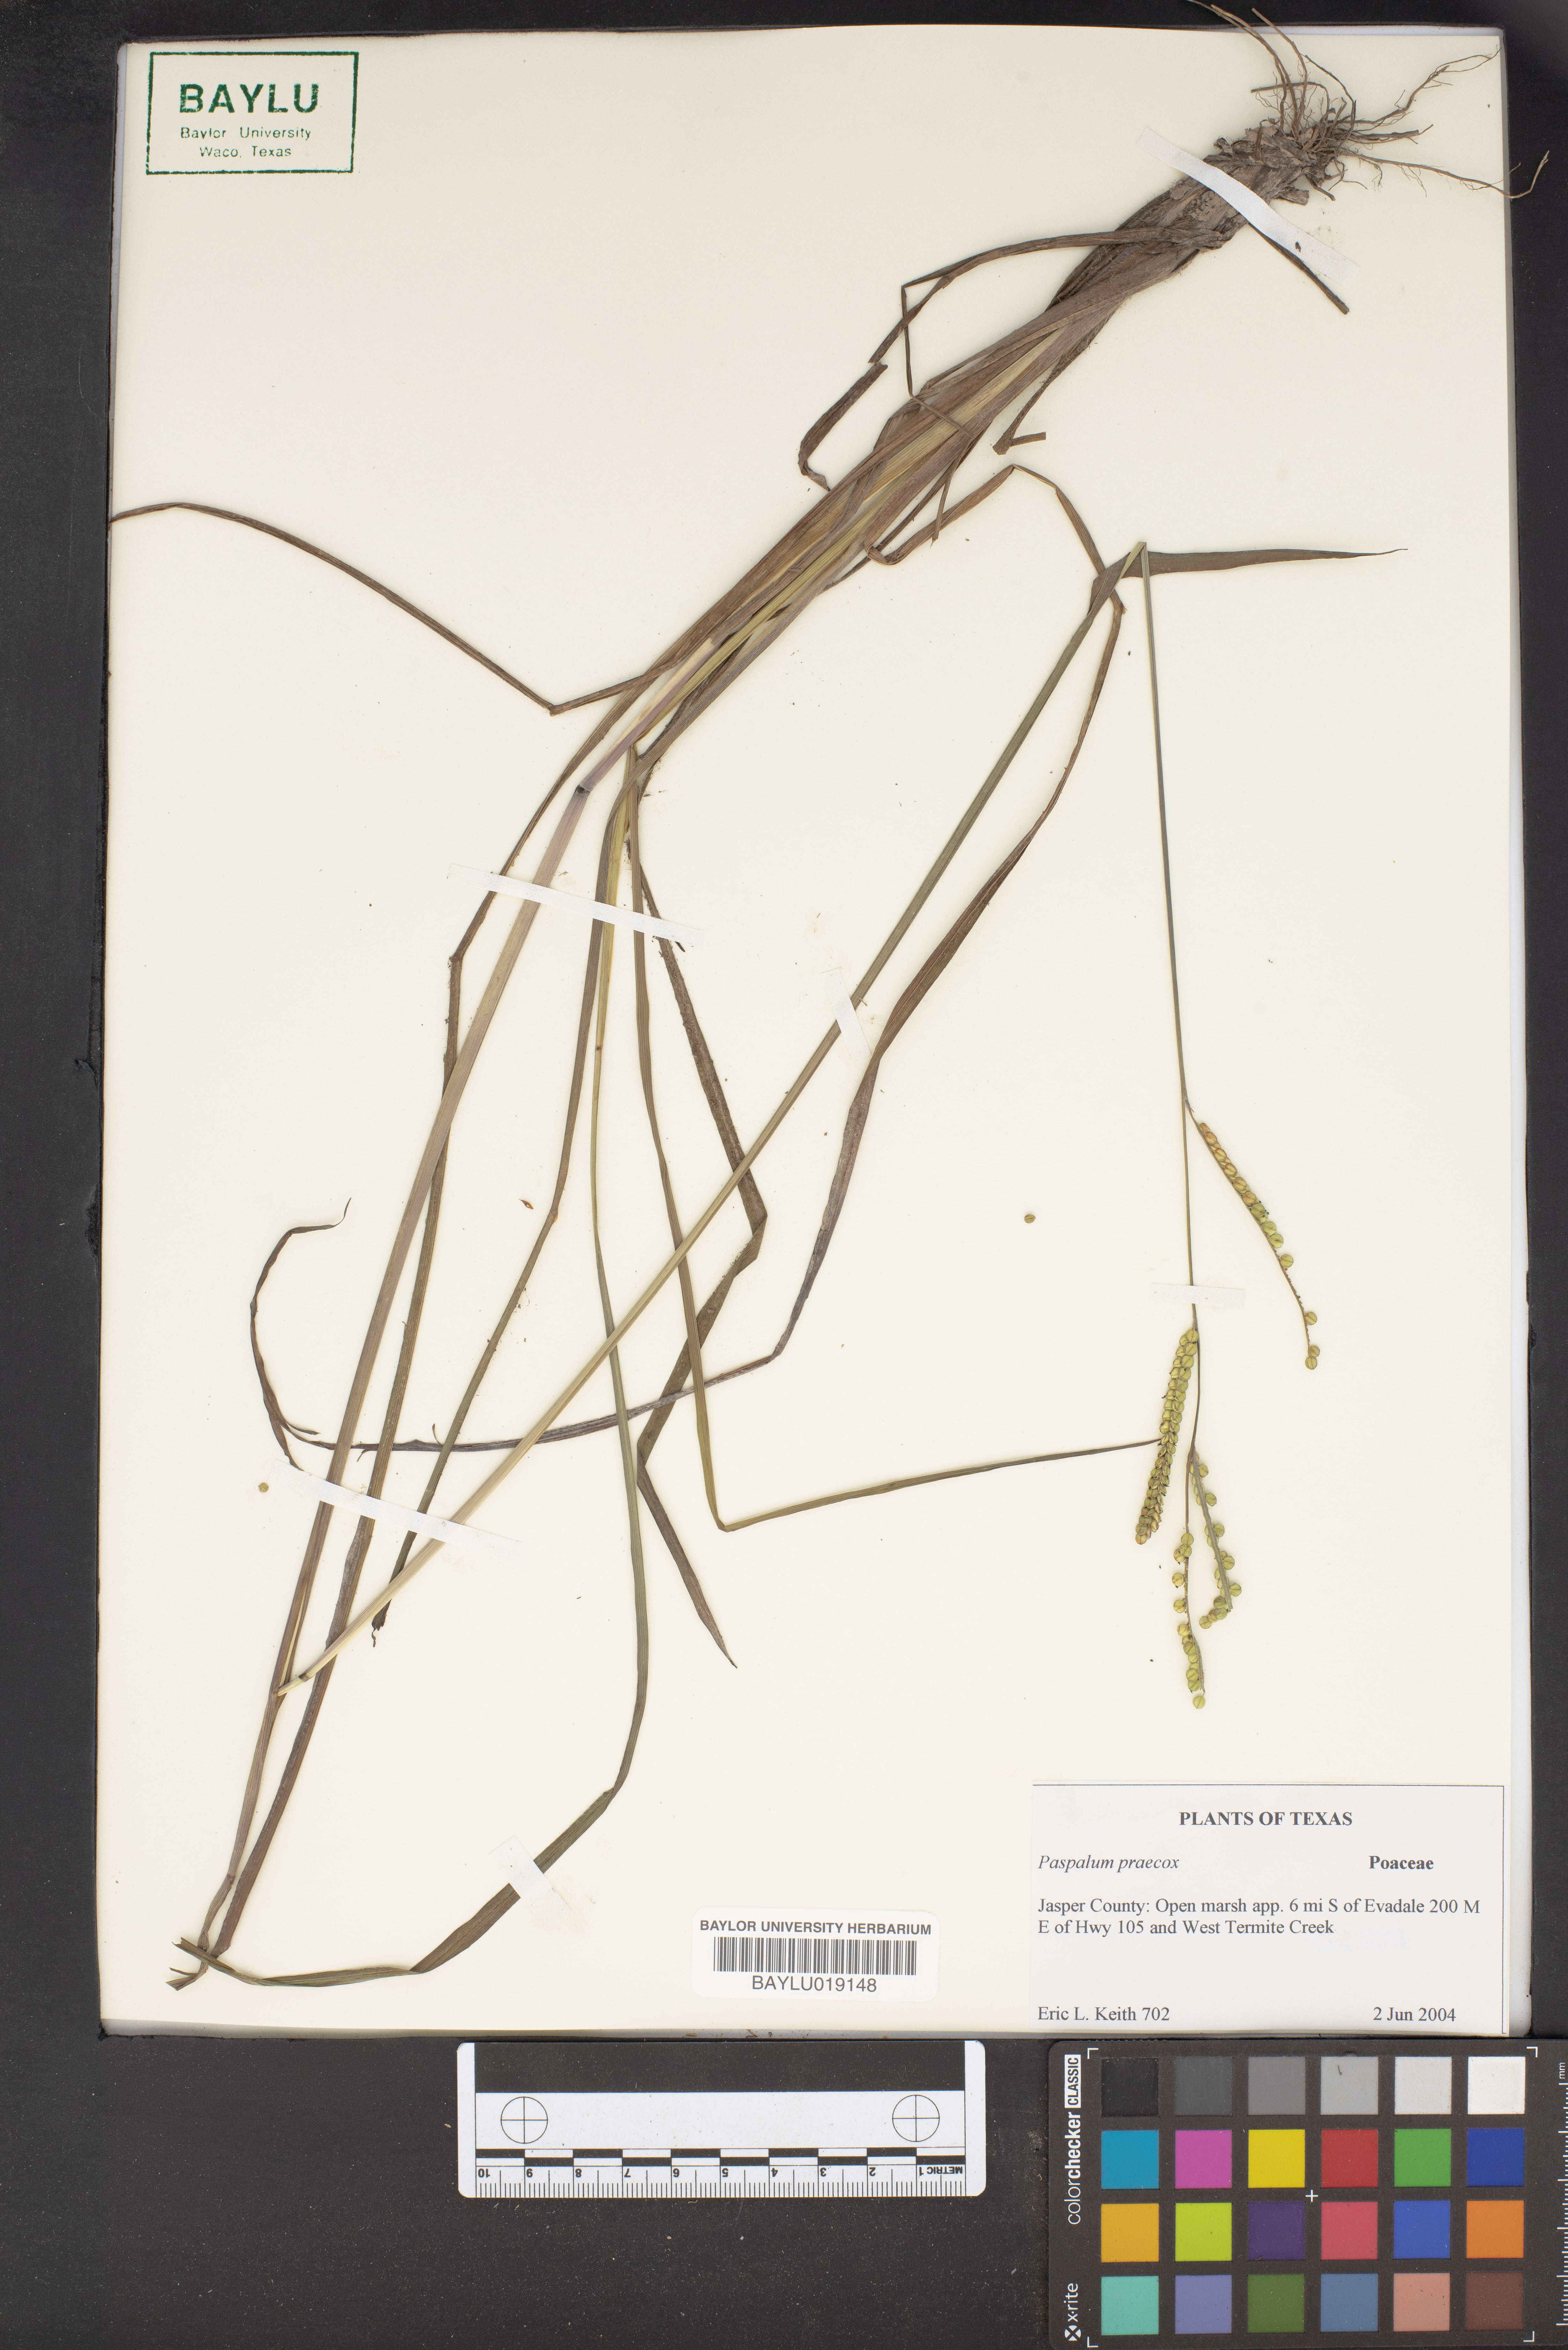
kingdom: Plantae
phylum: Tracheophyta
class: Liliopsida
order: Poales
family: Poaceae
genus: Paspalum
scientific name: Paspalum praecox
